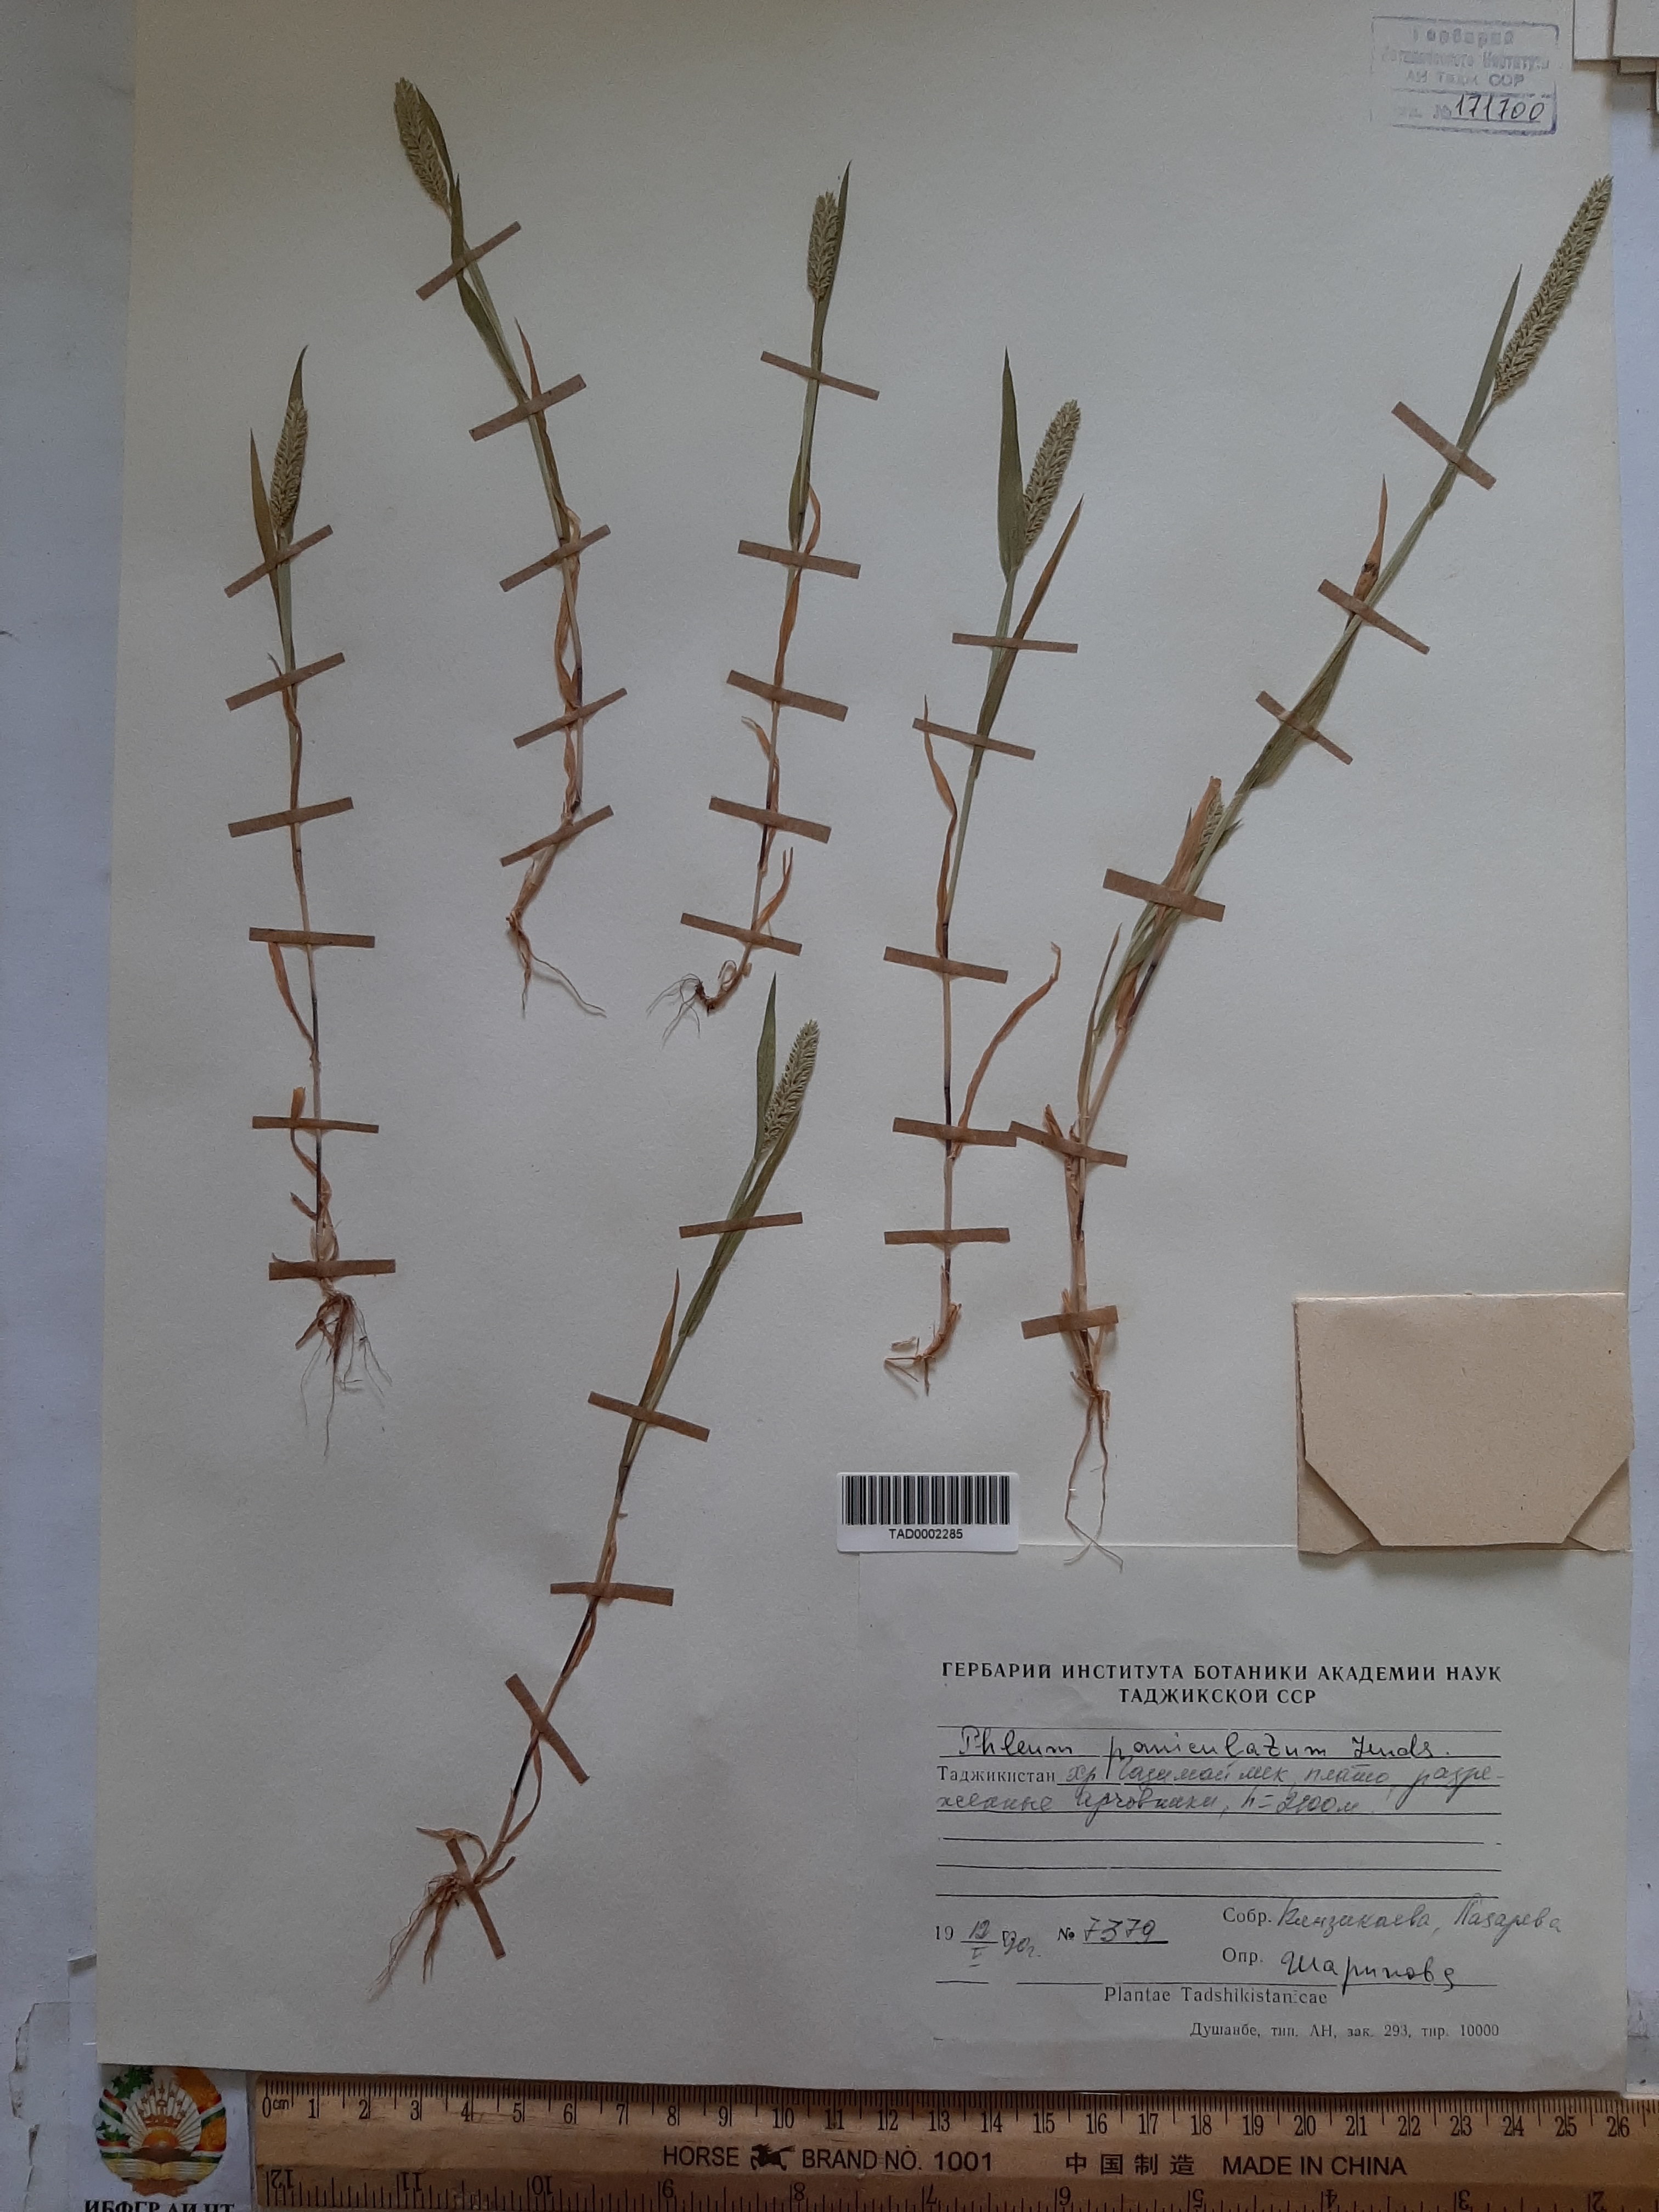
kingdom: Plantae
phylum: Tracheophyta
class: Liliopsida
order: Poales
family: Poaceae
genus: Phleum
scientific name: Phleum paniculatum
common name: British timothy
